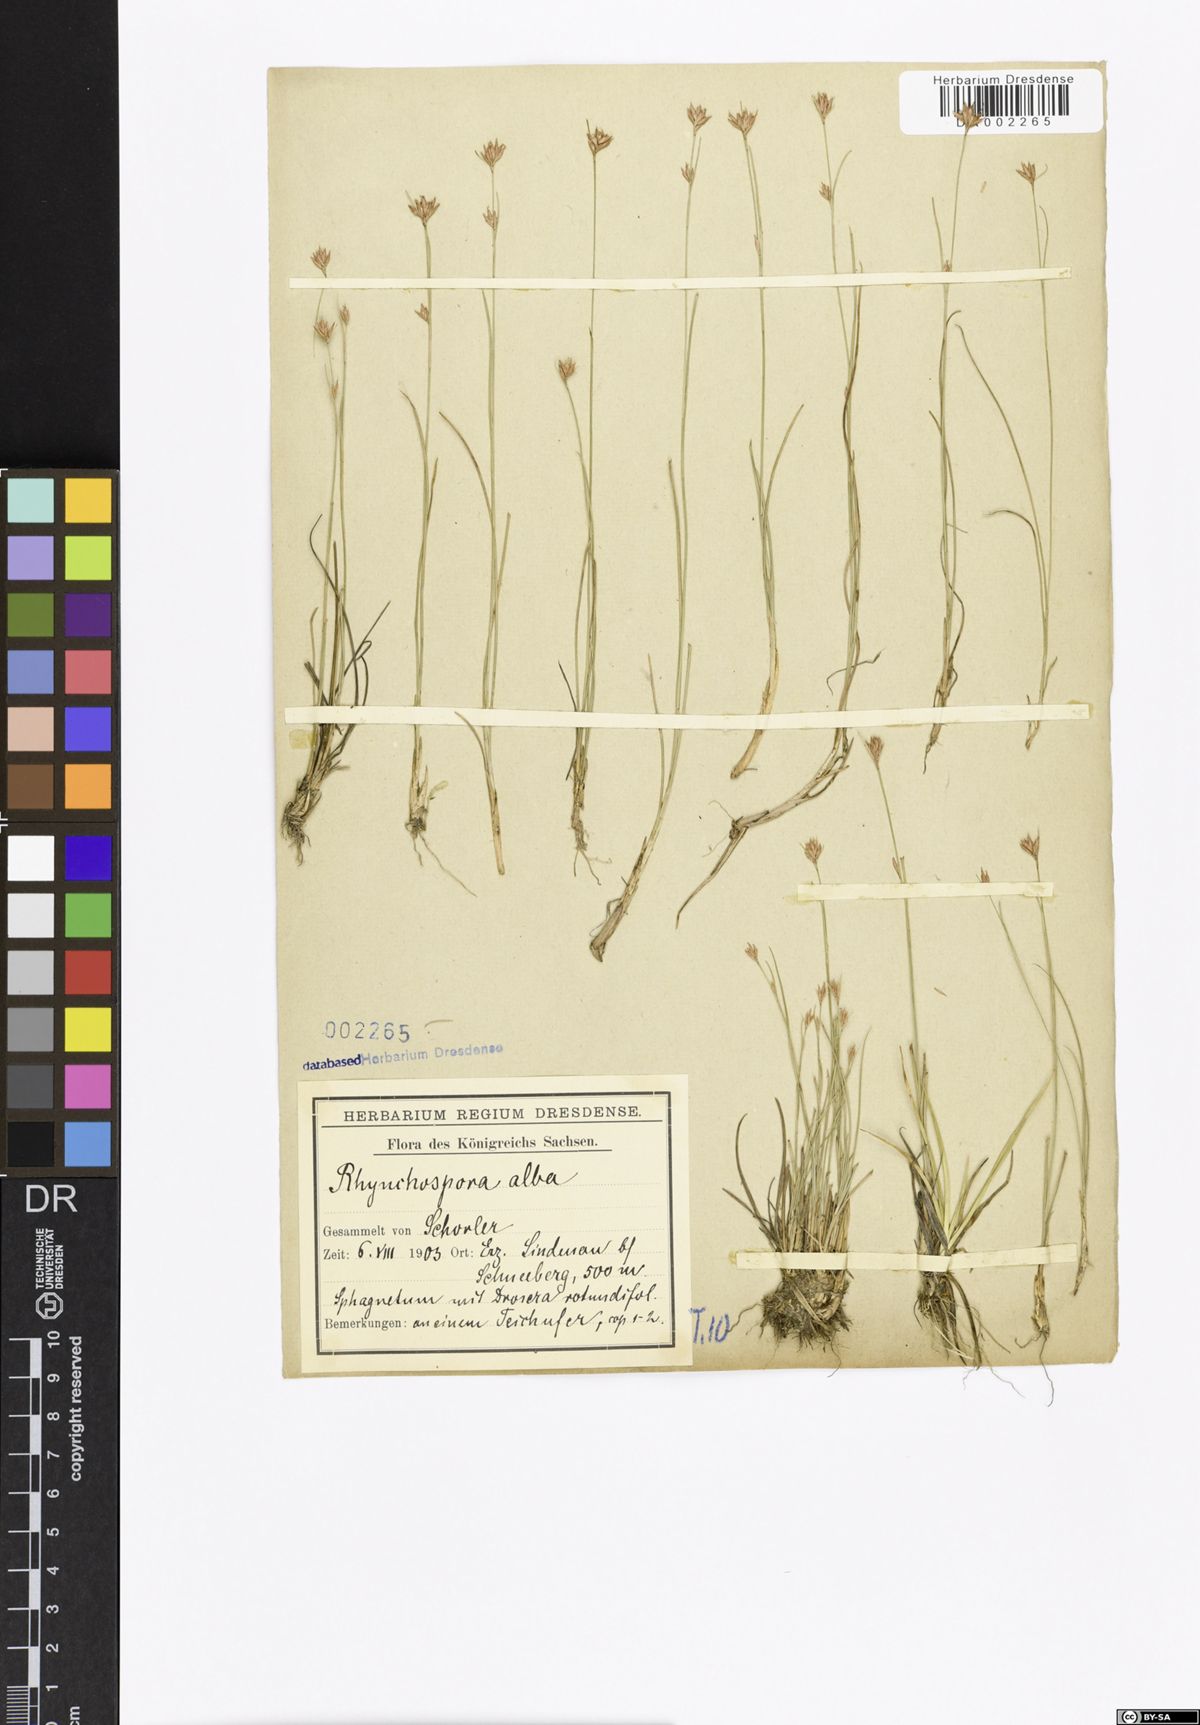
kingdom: Plantae
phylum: Tracheophyta
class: Liliopsida
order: Poales
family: Cyperaceae
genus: Rhynchospora
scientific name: Rhynchospora alba
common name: White beak-sedge
